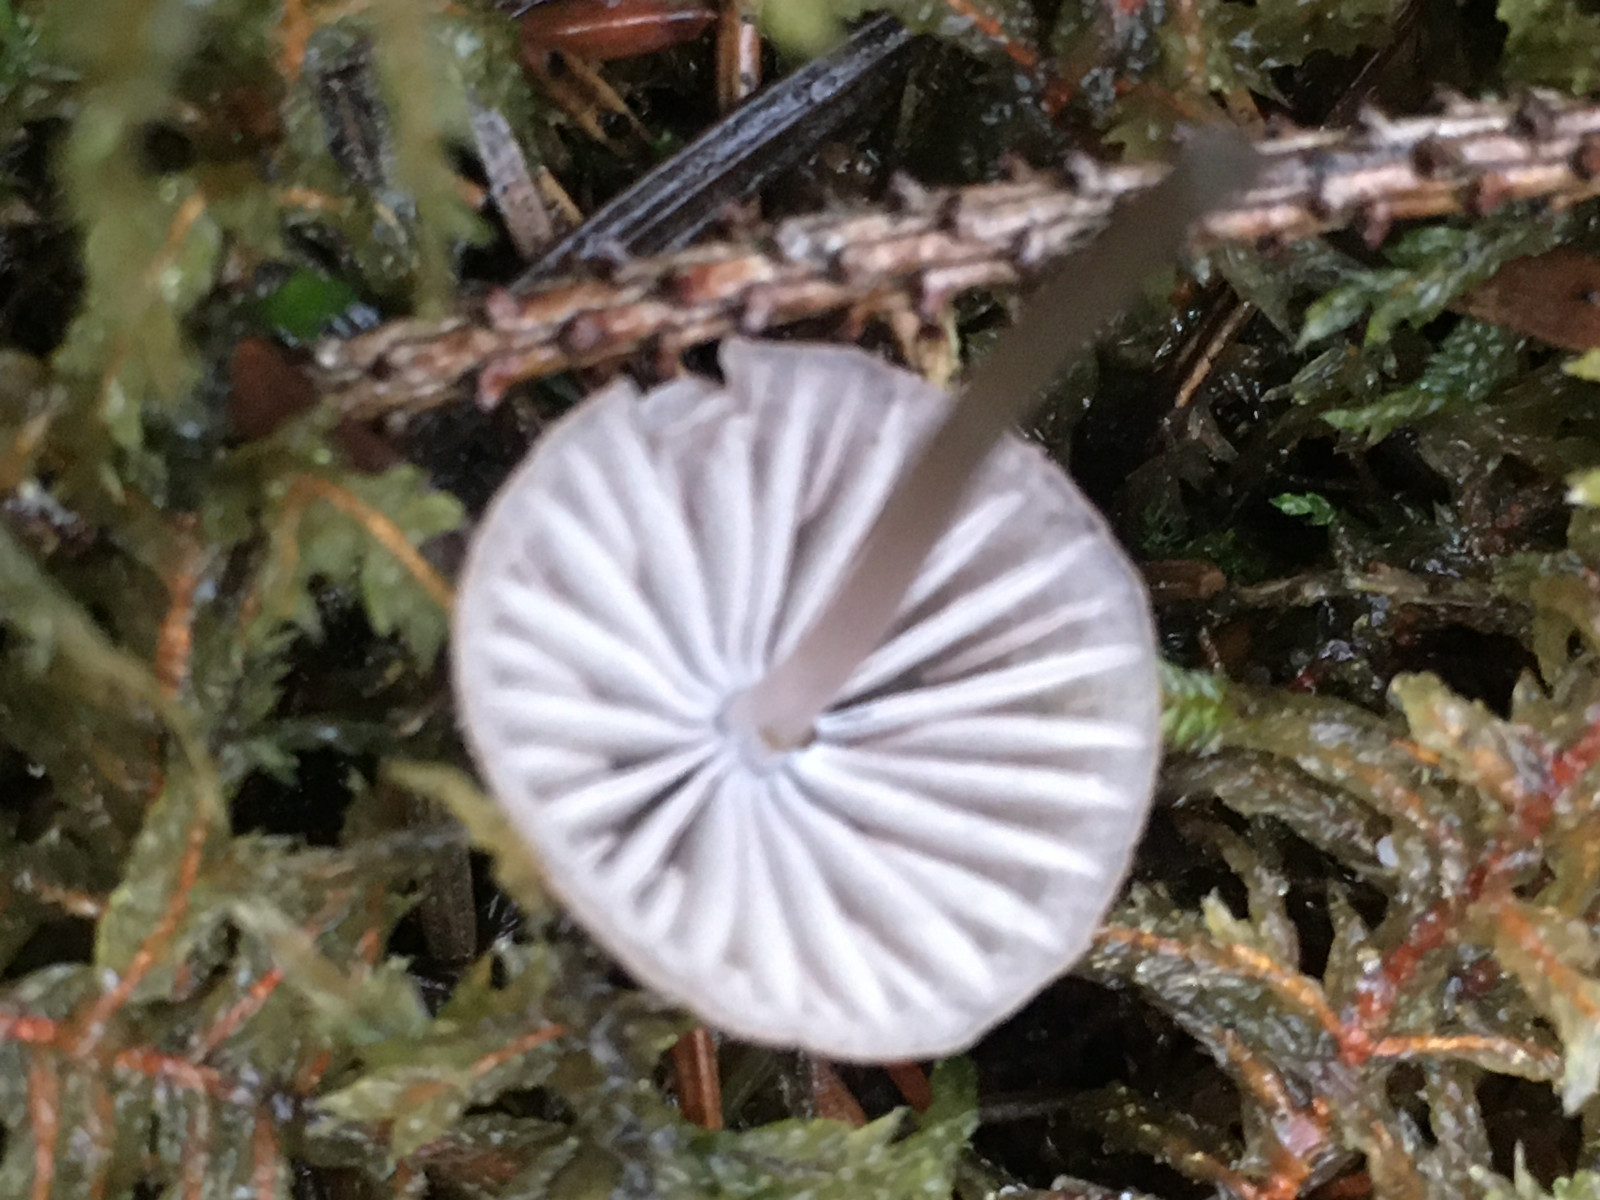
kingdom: Fungi
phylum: Basidiomycota
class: Agaricomycetes
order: Agaricales
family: Mycenaceae
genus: Mycena
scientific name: Mycena
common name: huesvamp
